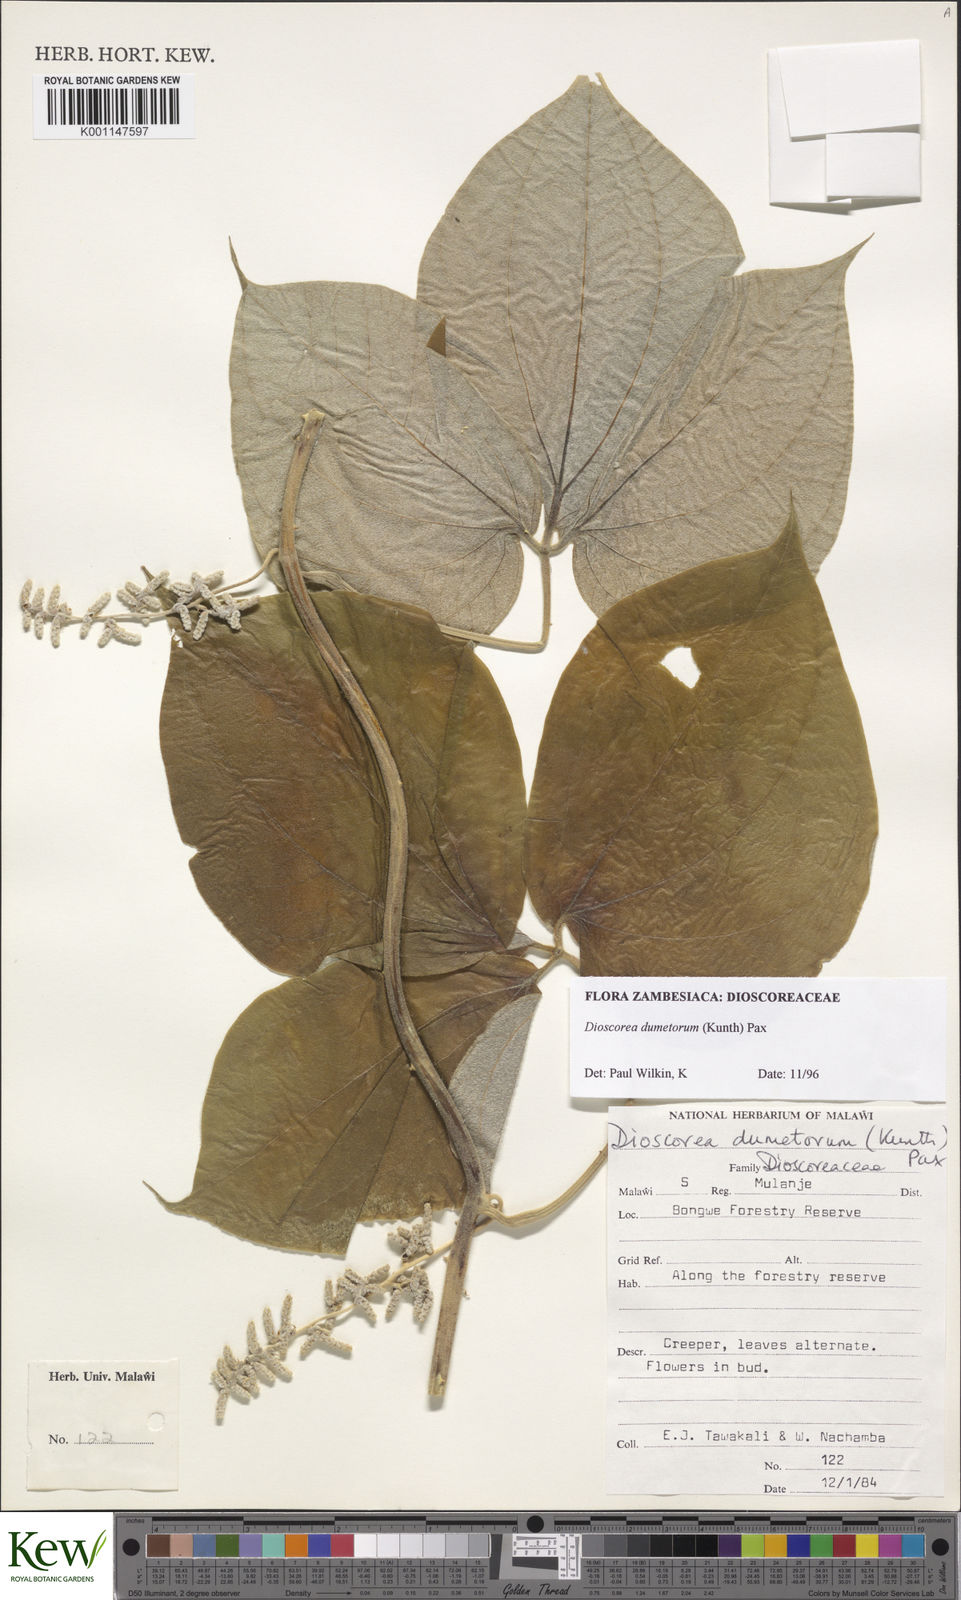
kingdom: Plantae
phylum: Tracheophyta
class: Liliopsida
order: Dioscoreales
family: Dioscoreaceae
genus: Dioscorea
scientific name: Dioscorea dumetorum
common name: African bitter yam
